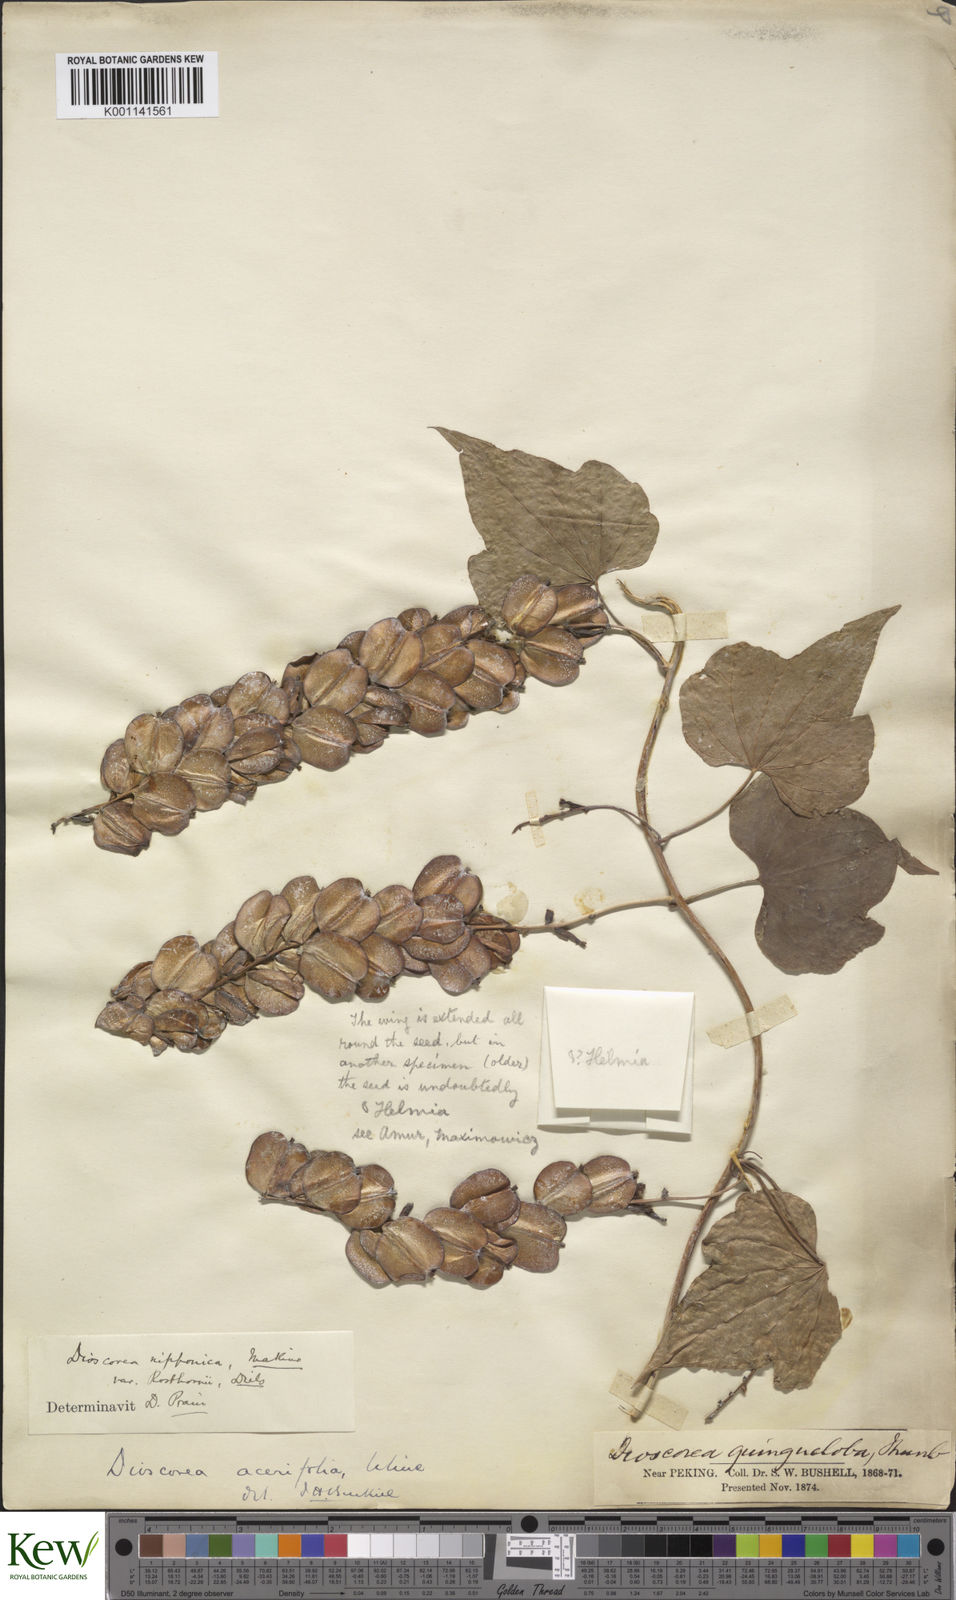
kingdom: Plantae
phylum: Tracheophyta
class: Liliopsida
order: Dioscoreales
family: Dioscoreaceae
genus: Dioscorea
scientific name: Dioscorea nipponica
